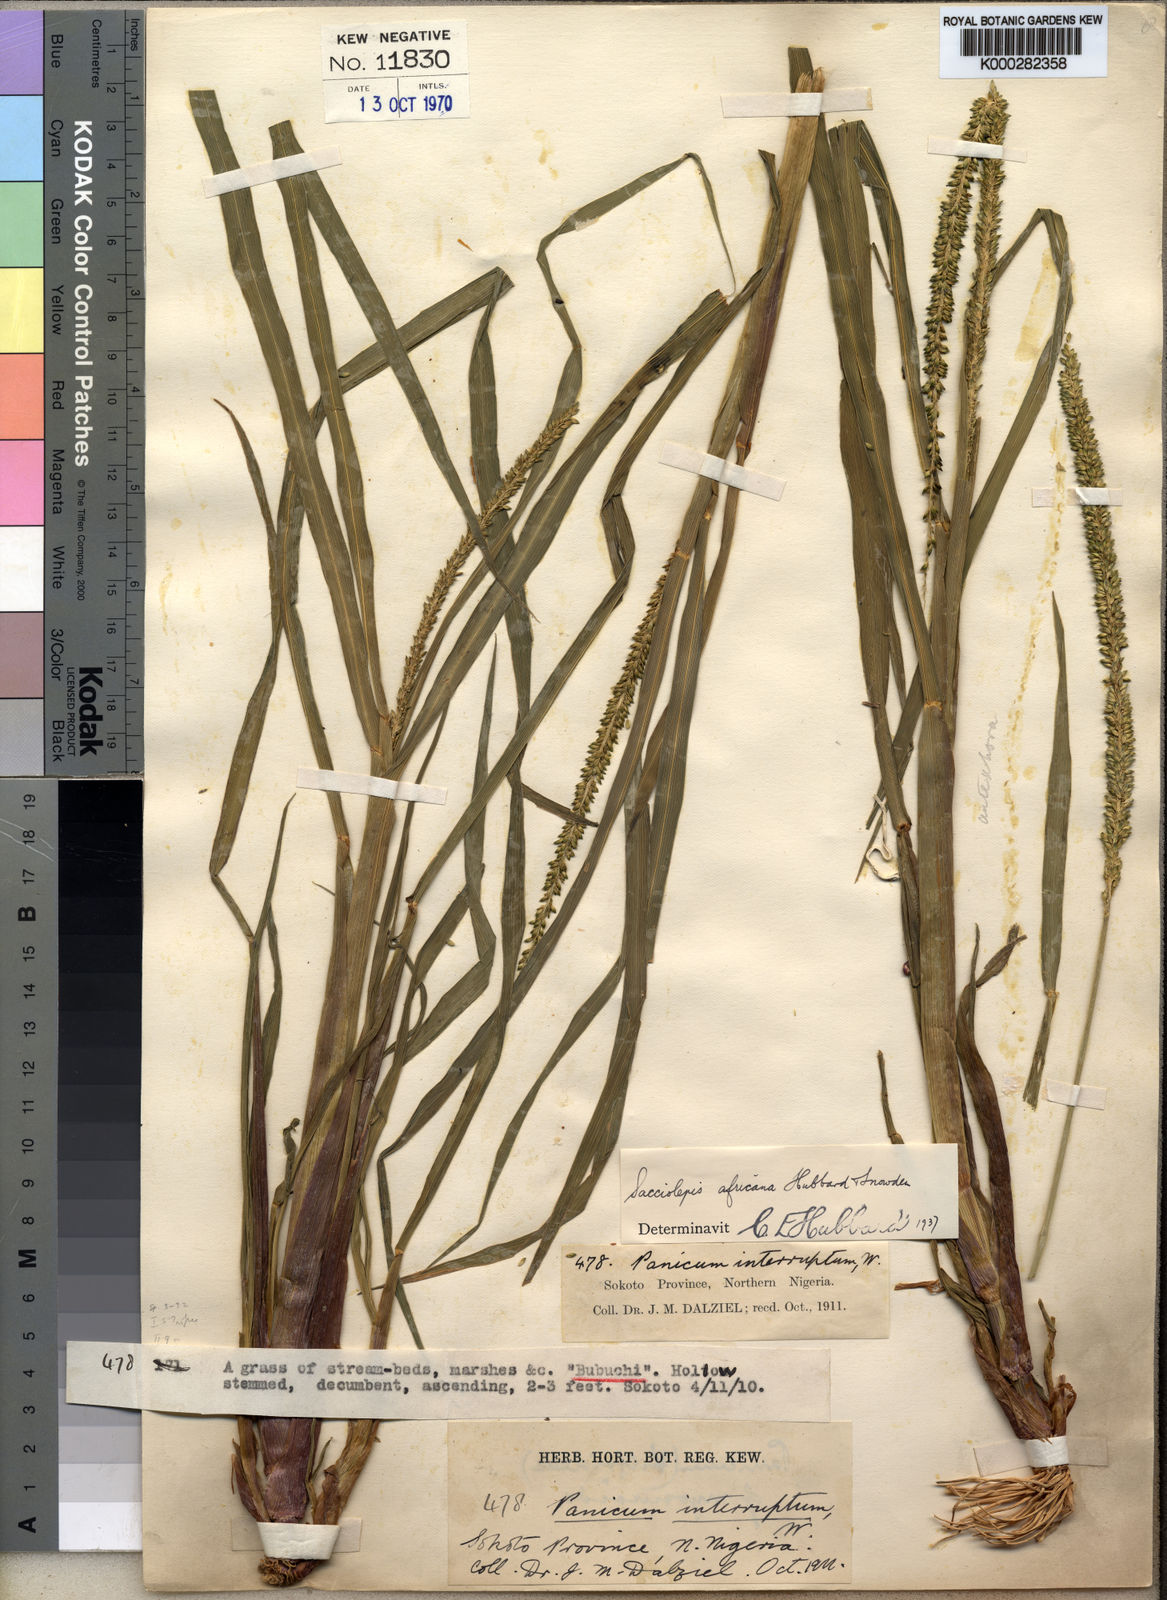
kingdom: Plantae
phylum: Tracheophyta
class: Liliopsida
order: Poales
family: Poaceae
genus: Sacciolepis
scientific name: Sacciolepis africana
